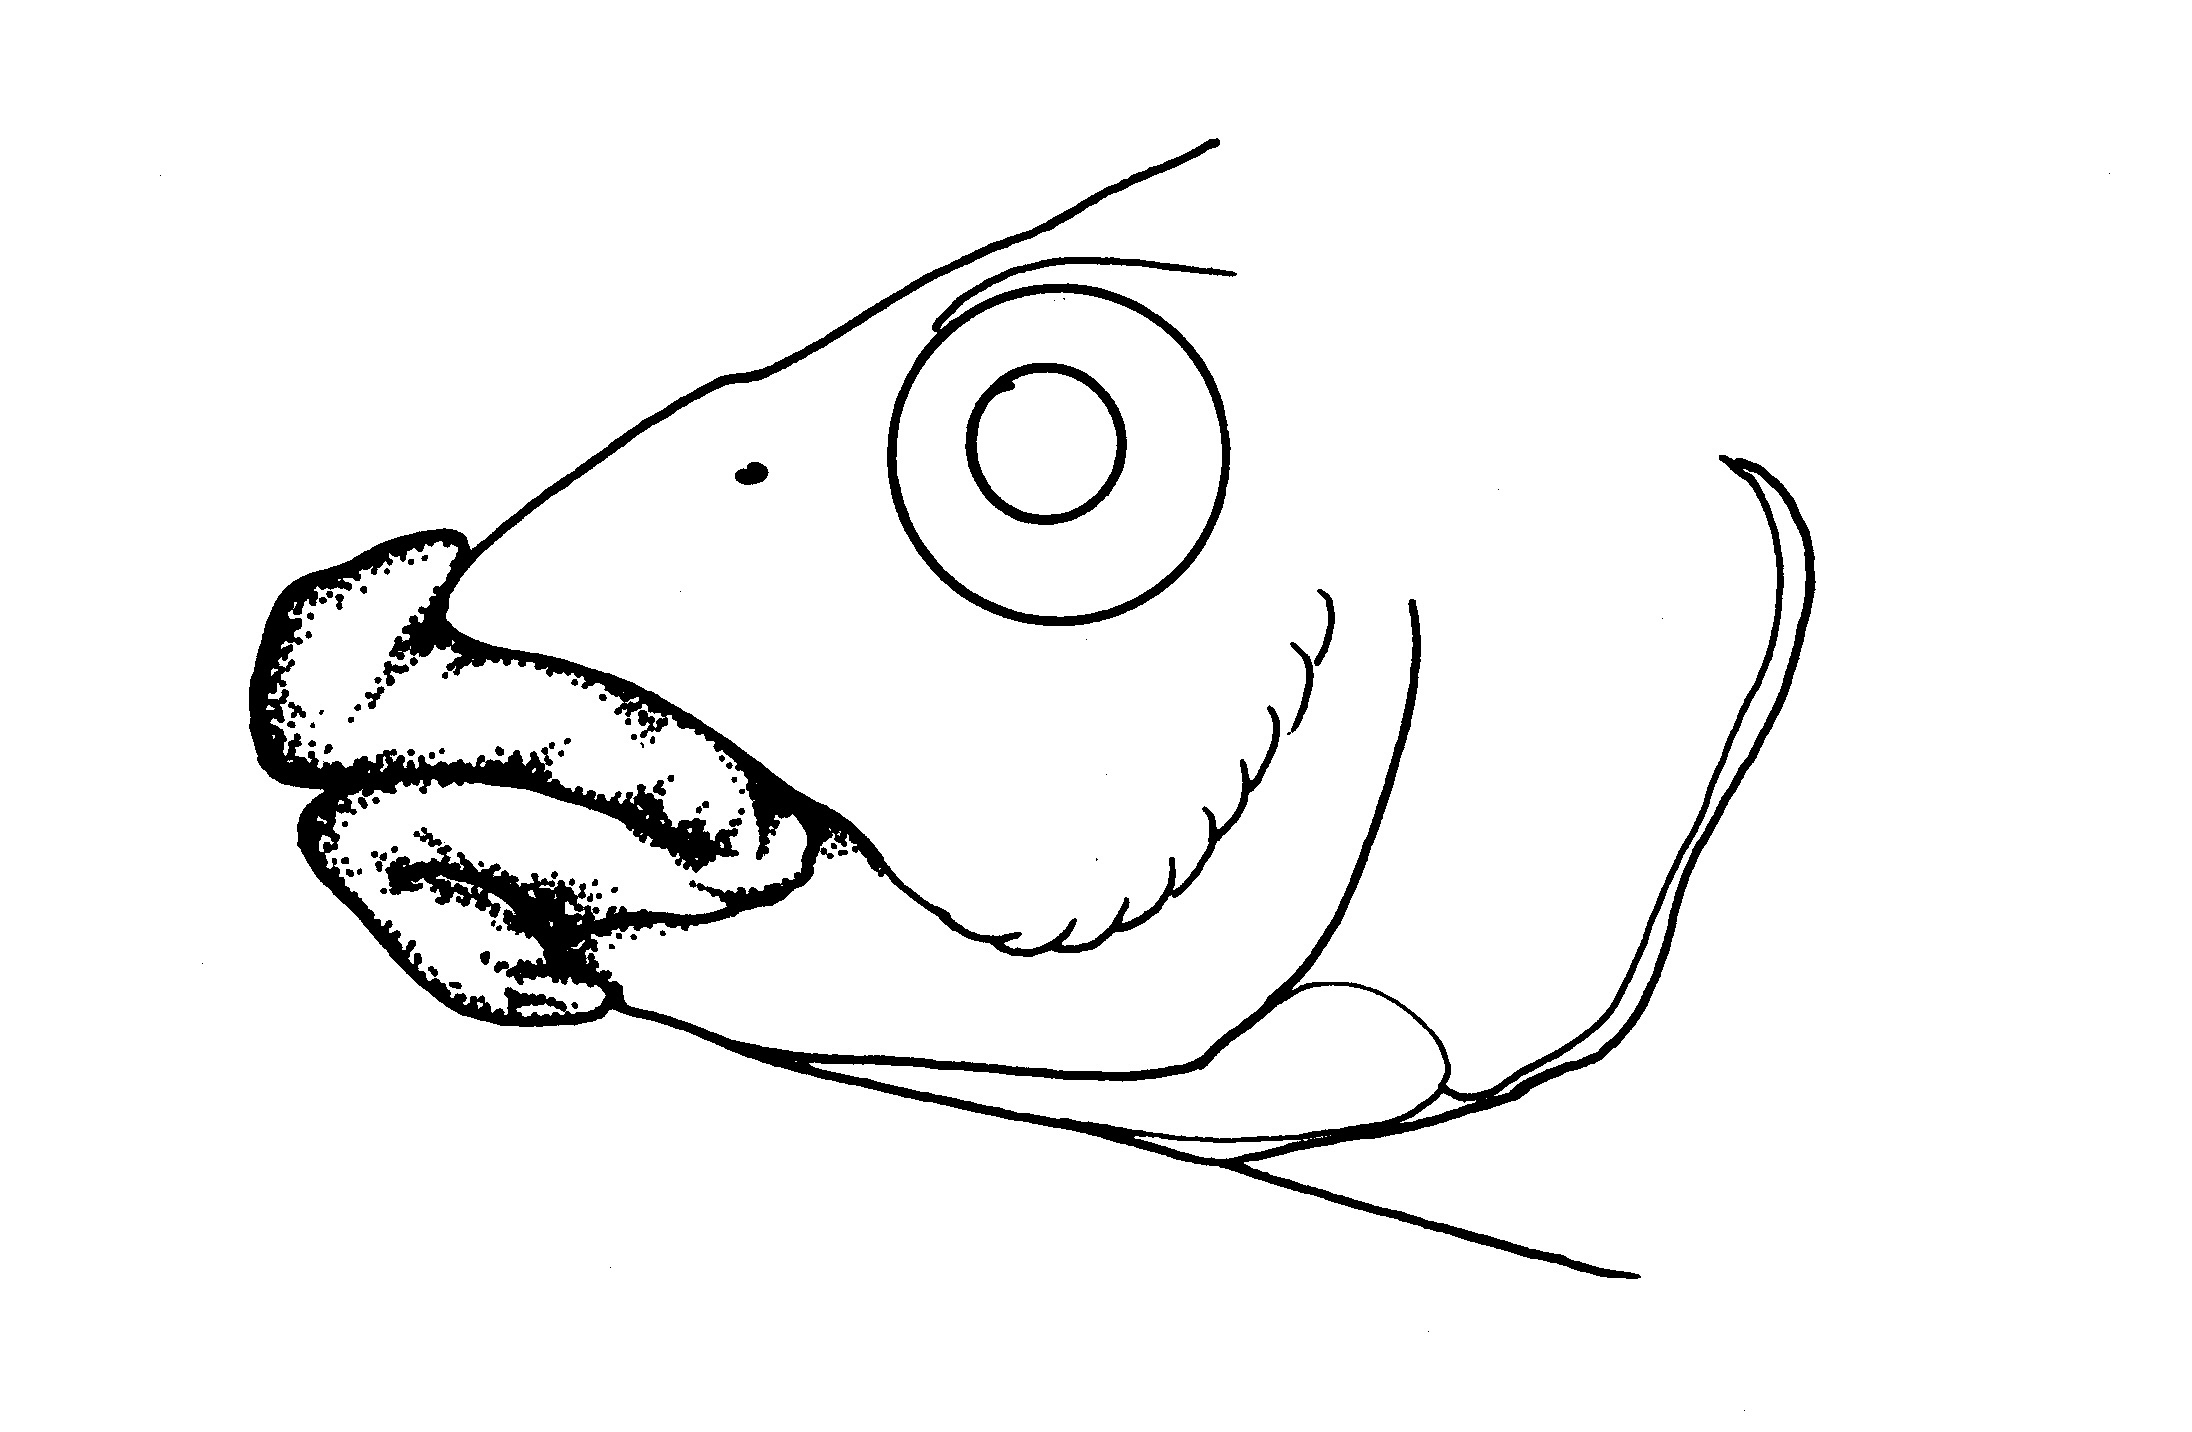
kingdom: Animalia
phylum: Chordata
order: Perciformes
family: Cichlidae
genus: Thoracochromis
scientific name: Thoracochromis albolabris
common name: Thicklipped happy
